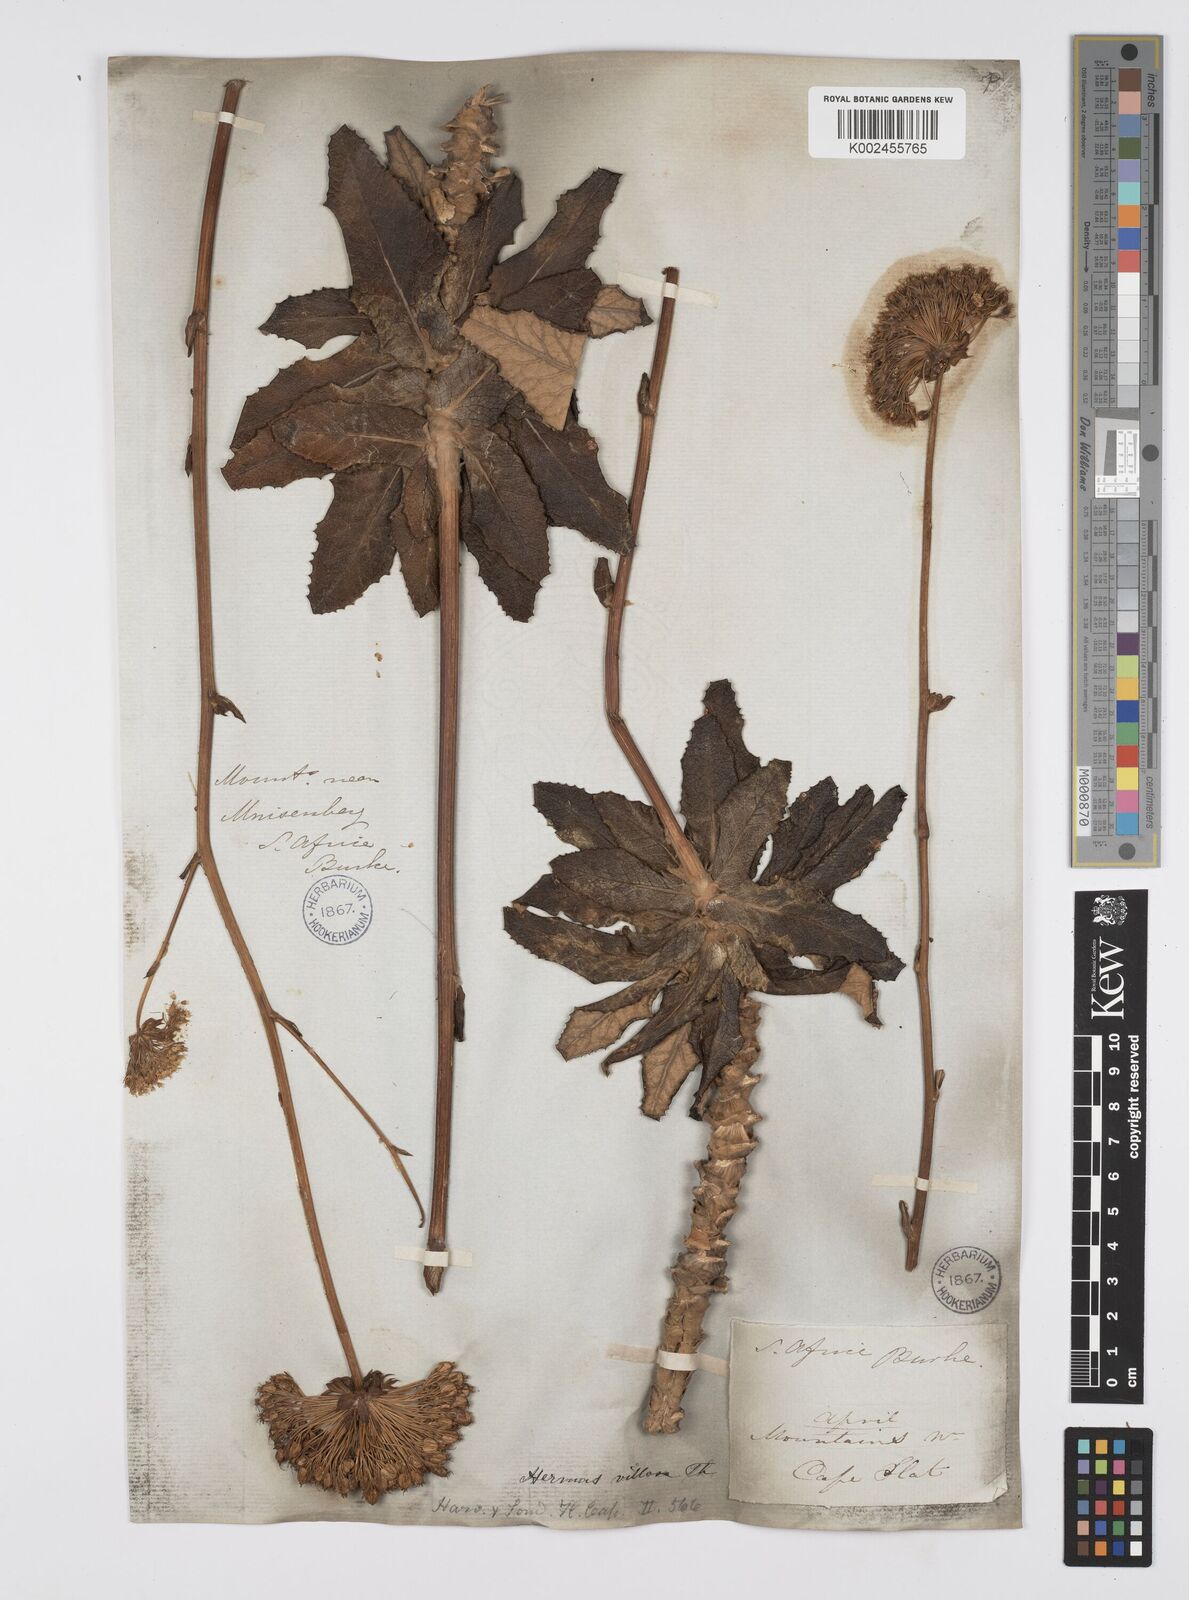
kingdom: Plantae
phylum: Tracheophyta
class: Magnoliopsida
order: Apiales
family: Apiaceae
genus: Hermas
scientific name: Hermas villosa
